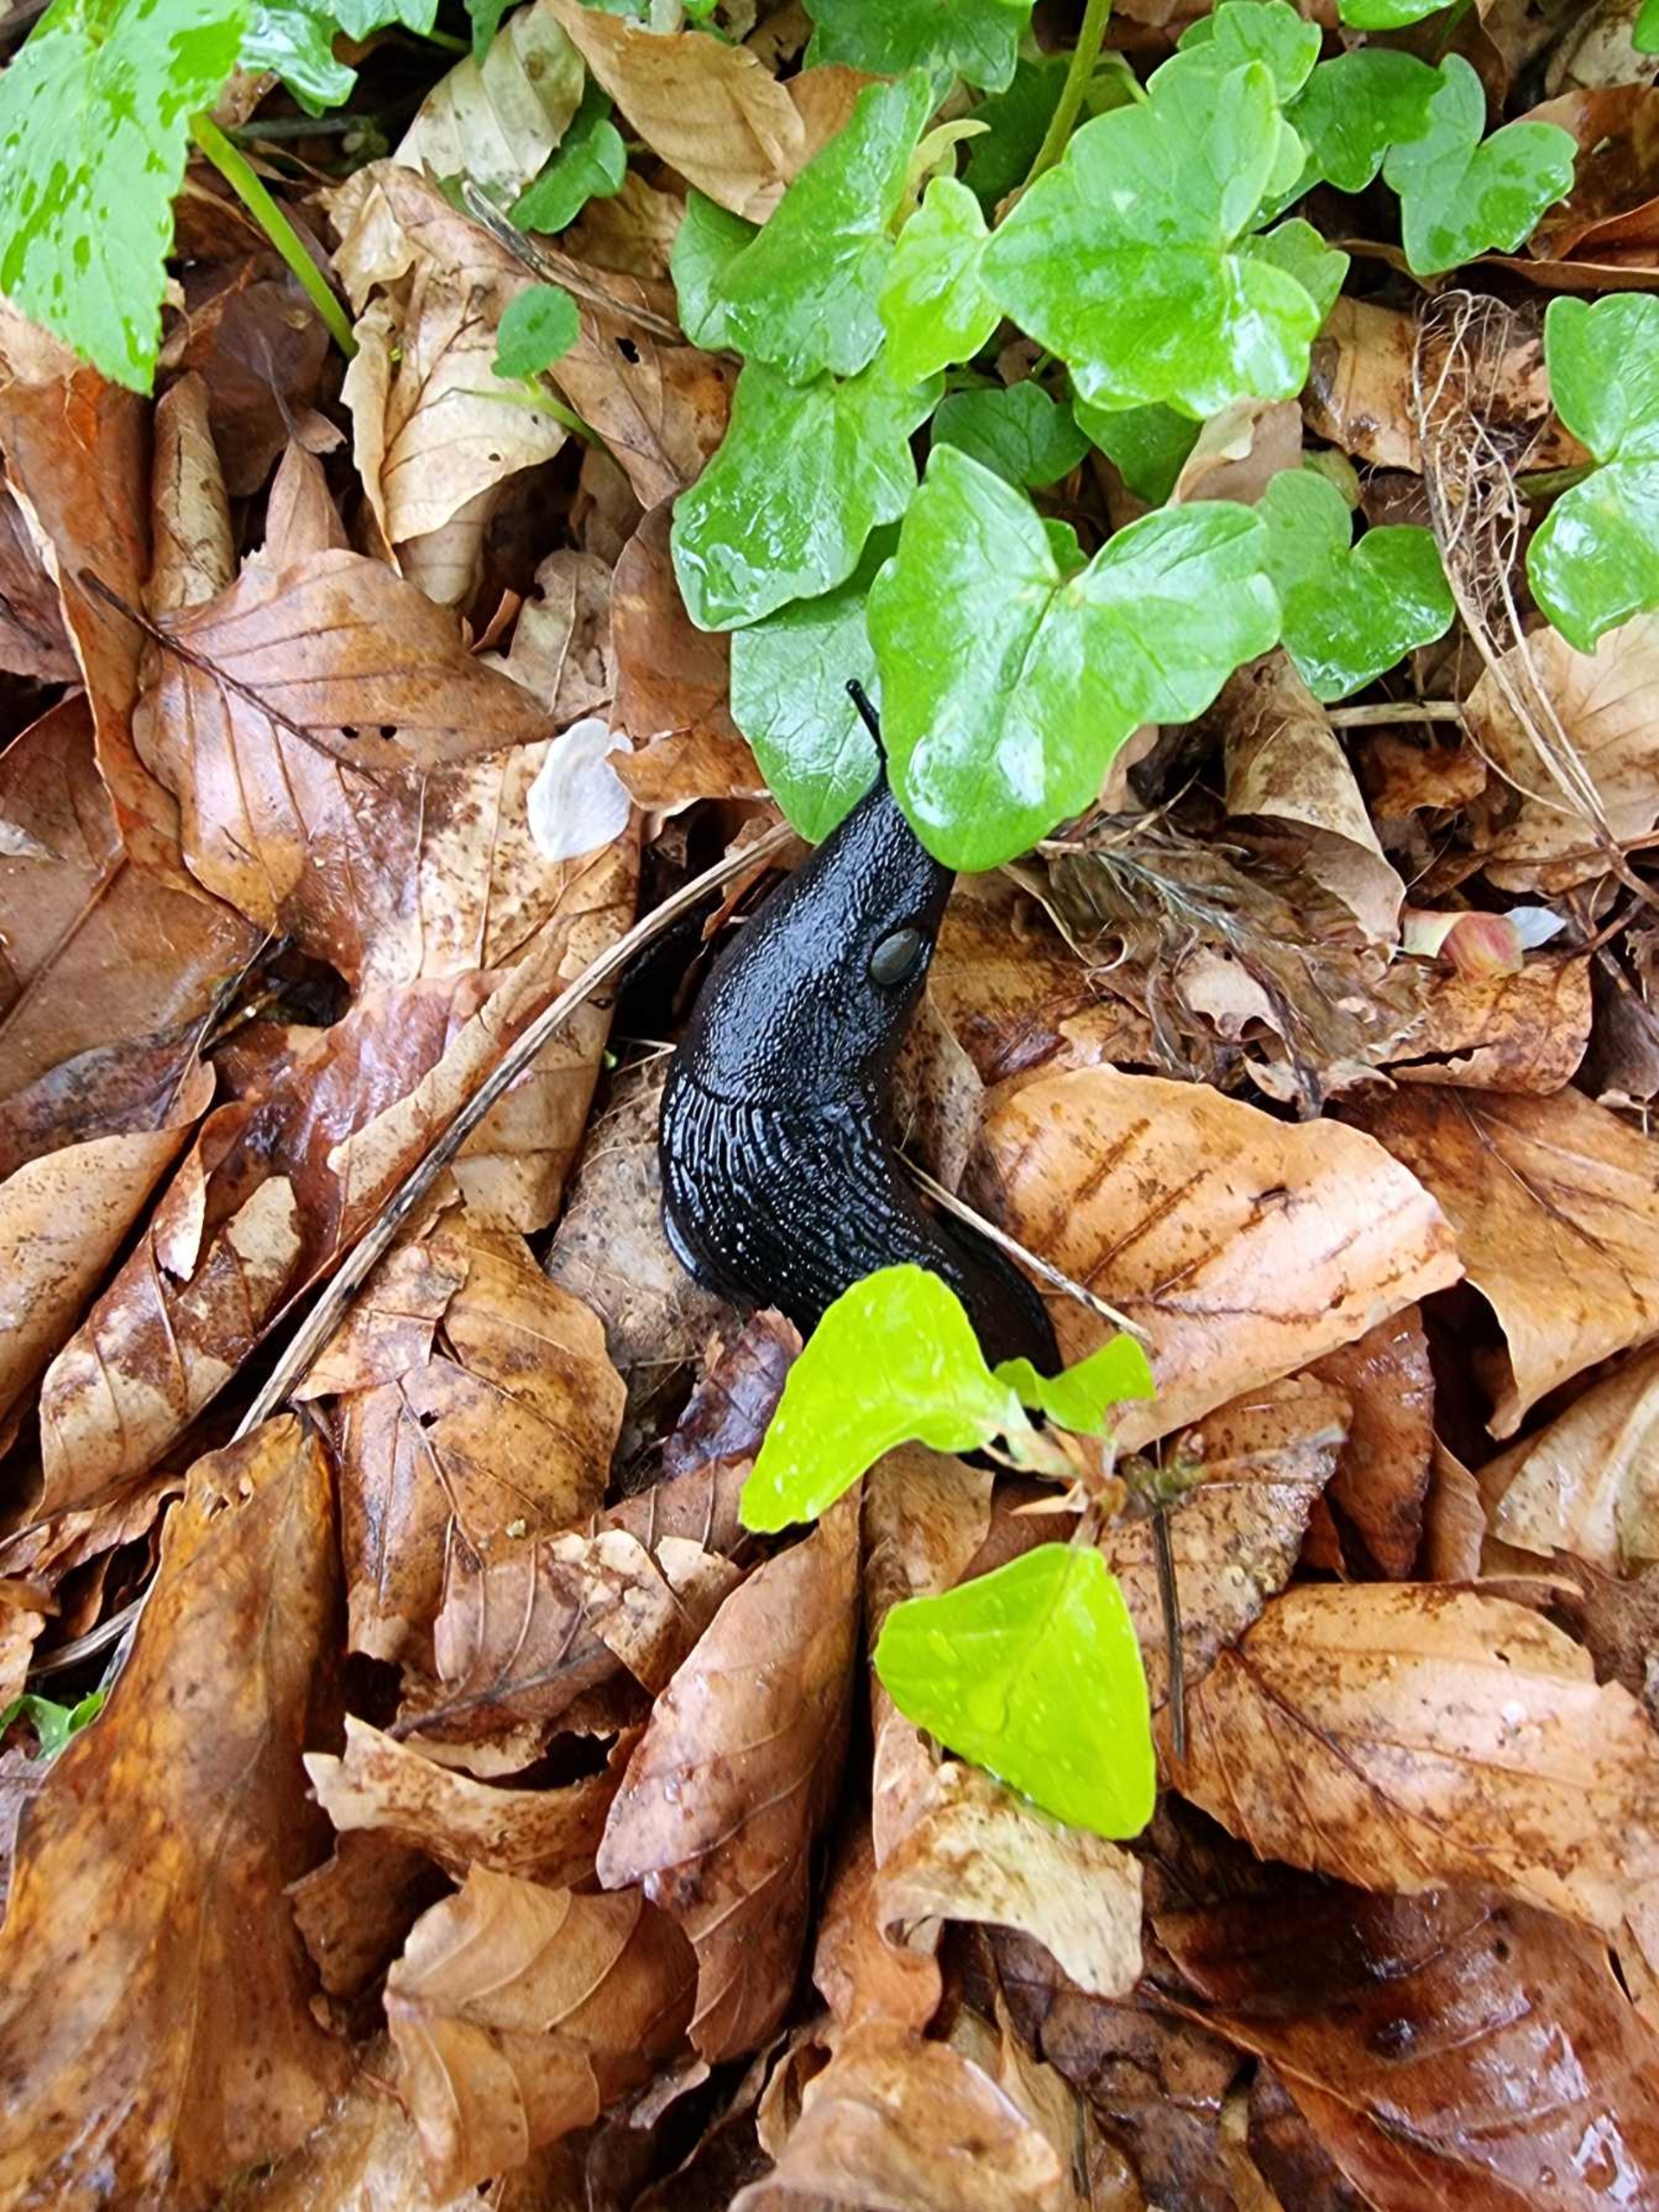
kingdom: Animalia
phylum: Mollusca
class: Gastropoda
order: Stylommatophora
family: Arionidae
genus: Arion
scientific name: Arion ater
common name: Sort skovsnegl
